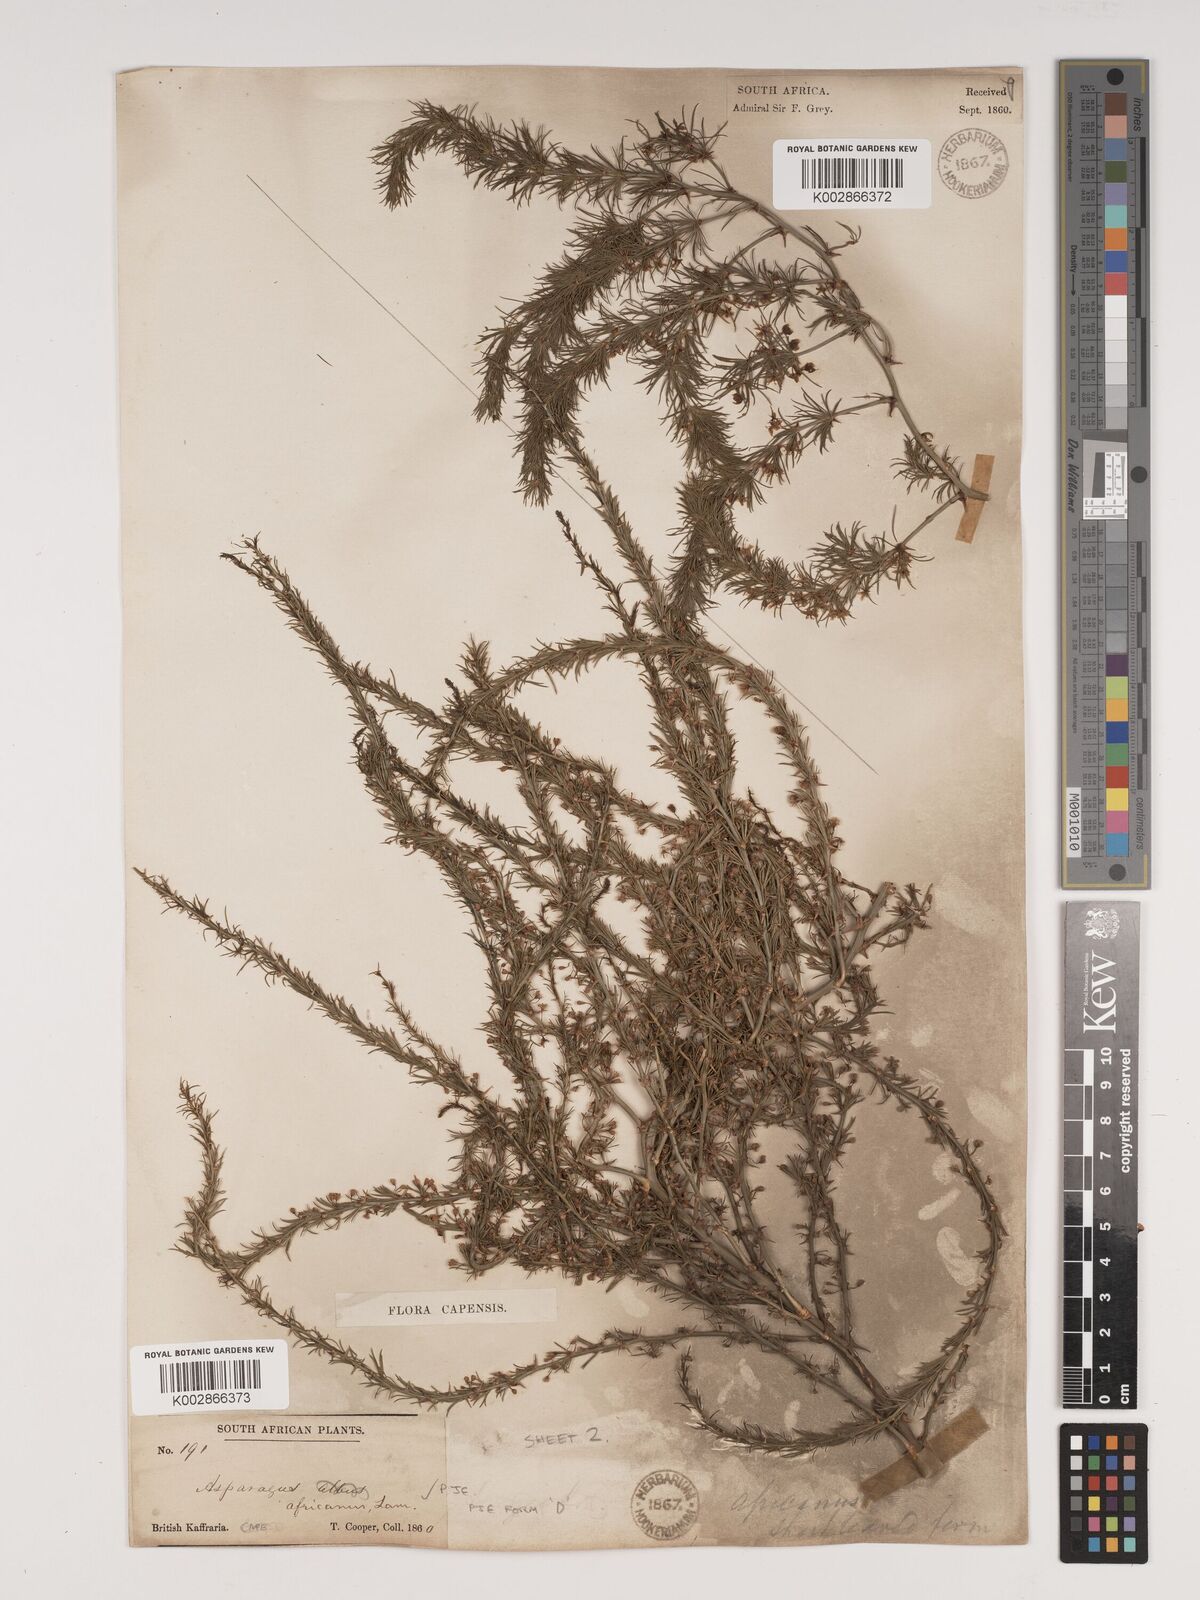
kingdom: Plantae
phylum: Tracheophyta
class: Liliopsida
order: Asparagales
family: Asparagaceae
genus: Asparagus
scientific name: Asparagus africanus
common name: Asparagus-fern
